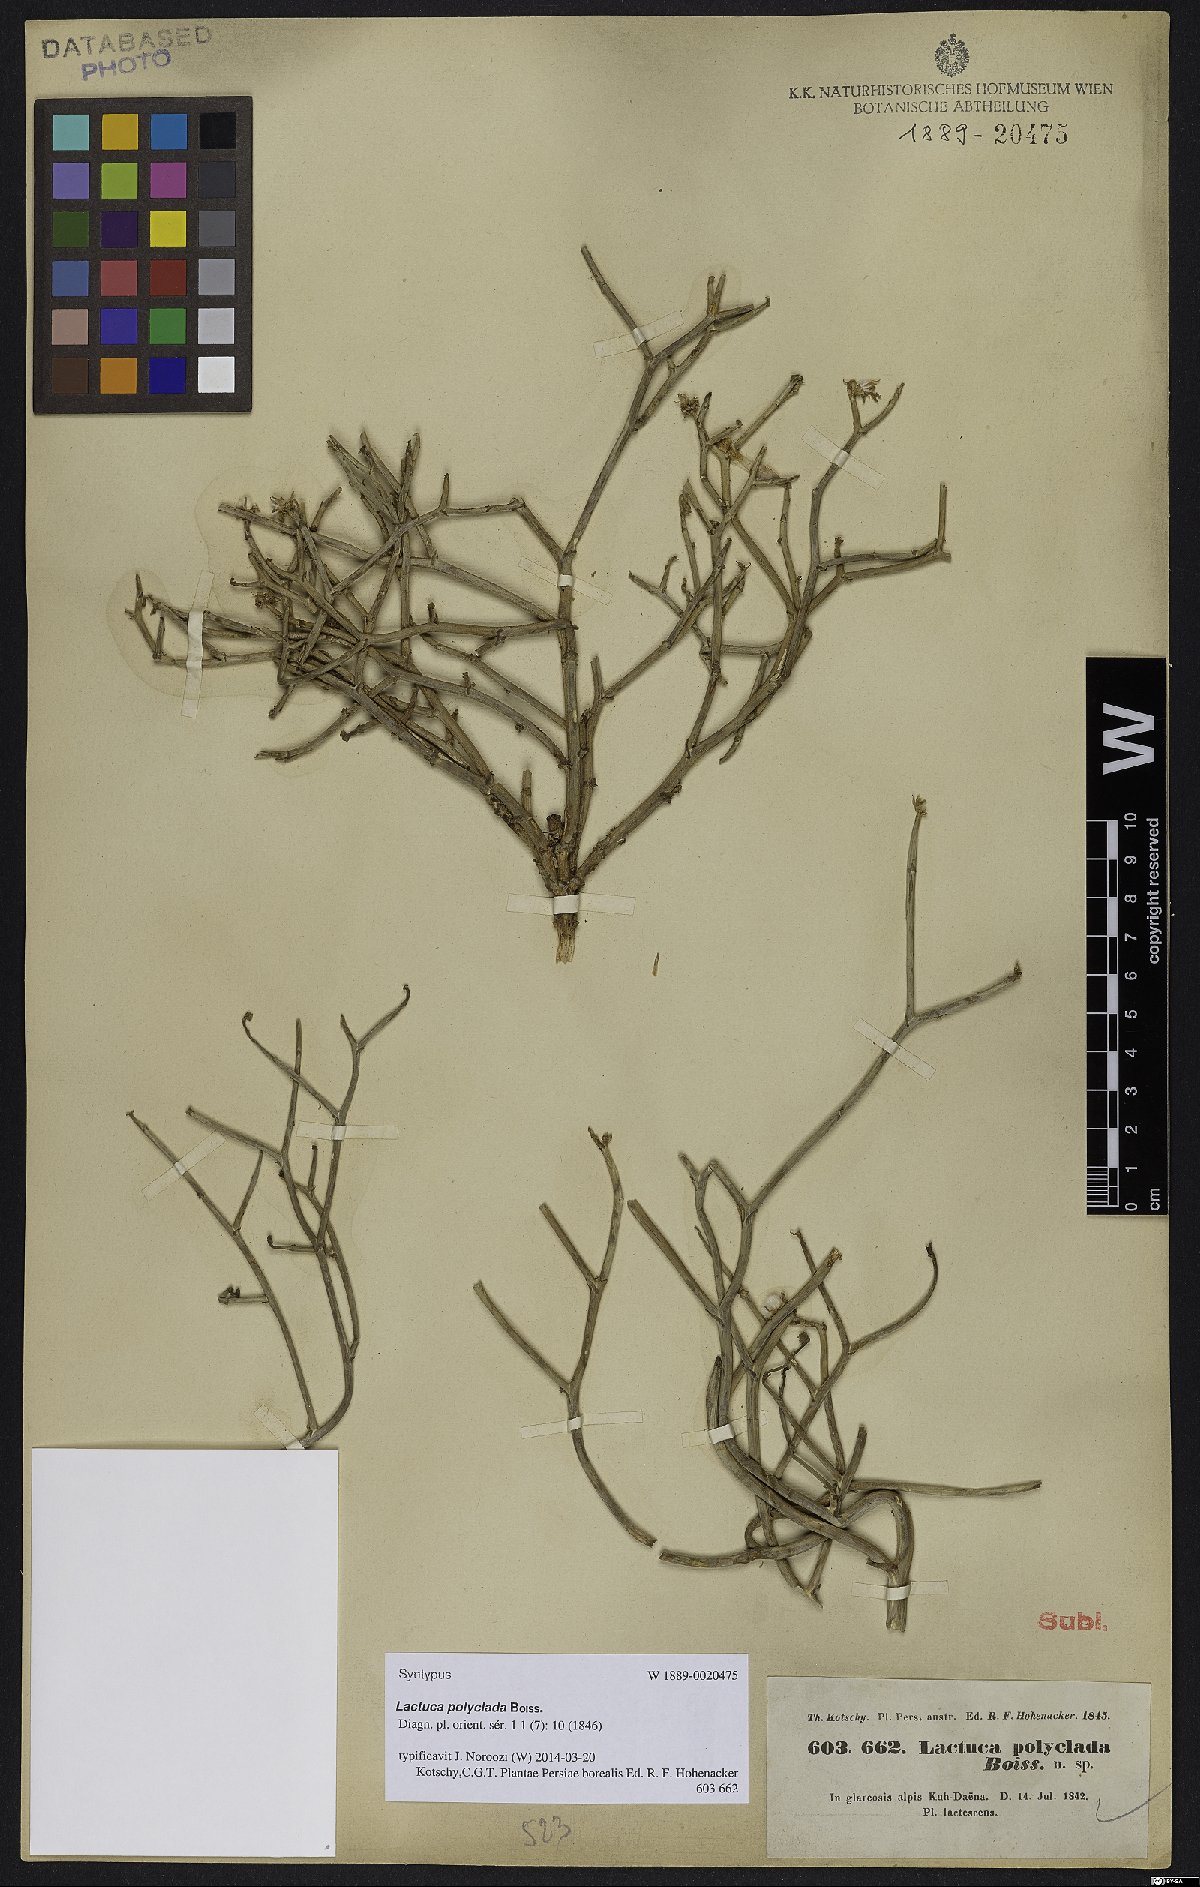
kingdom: Plantae
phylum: Tracheophyta
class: Magnoliopsida
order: Asterales
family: Asteraceae
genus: Lactuca
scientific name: Lactuca polyclada
